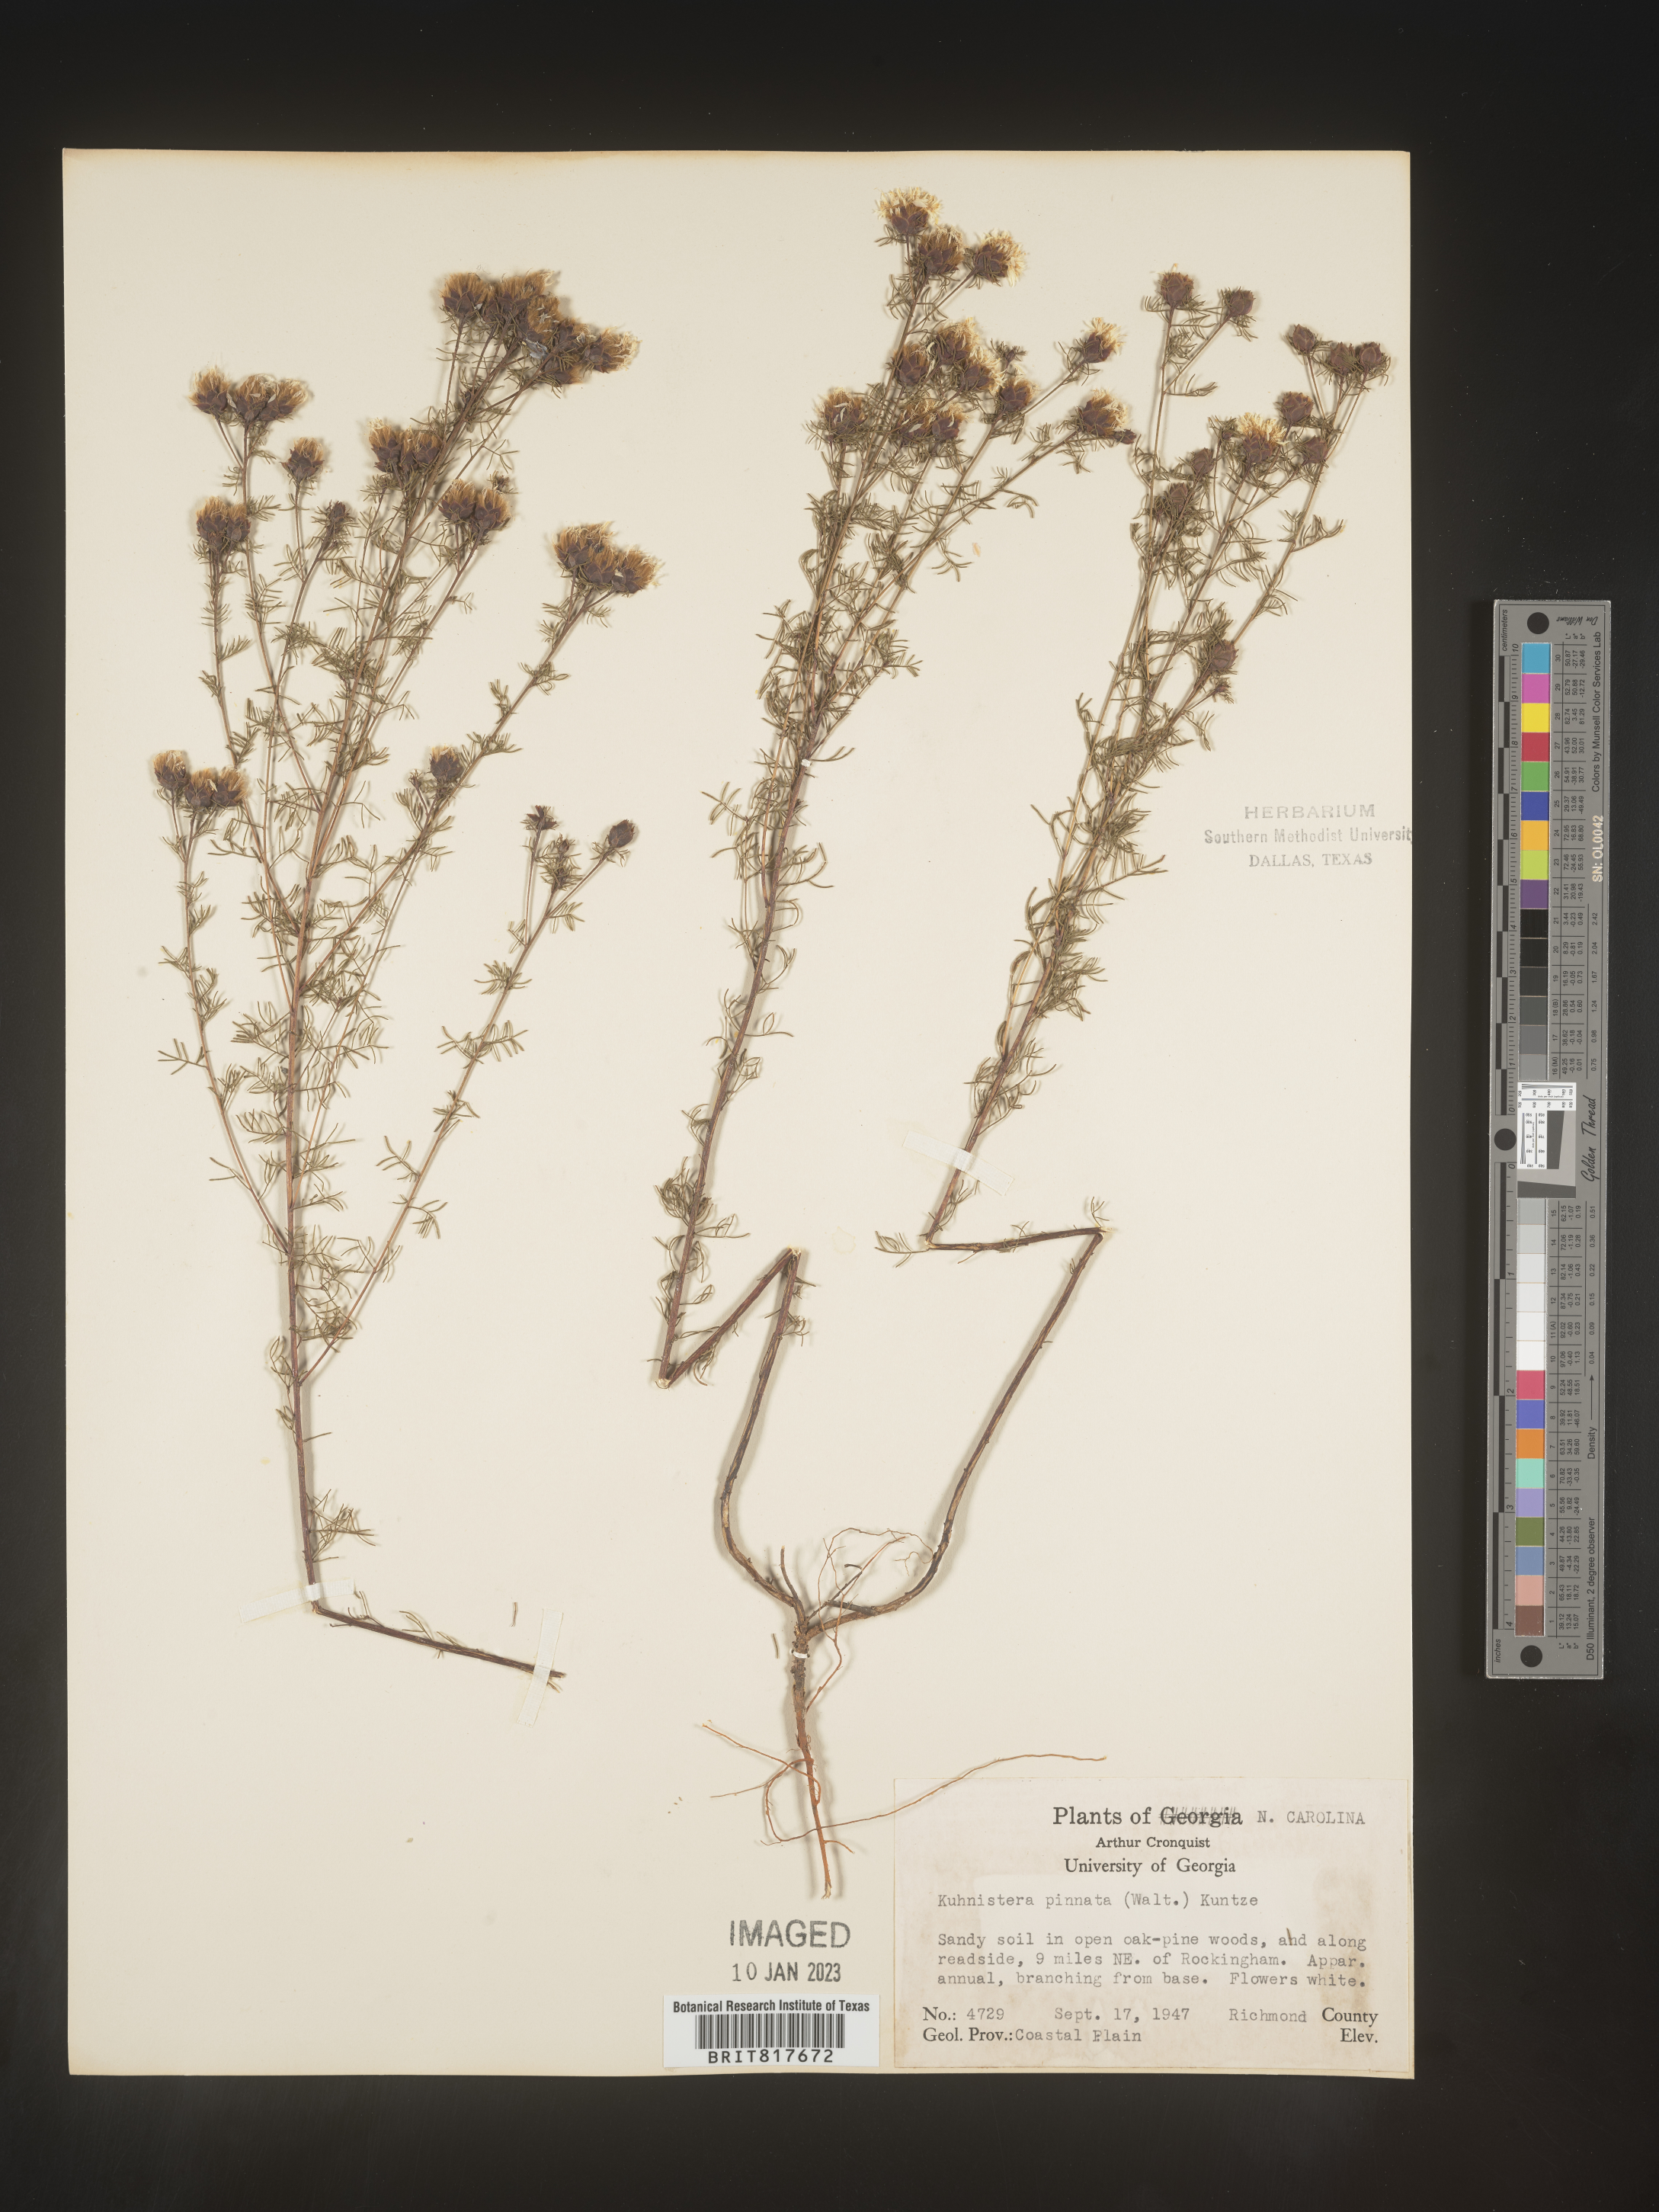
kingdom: Plantae
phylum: Tracheophyta
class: Magnoliopsida
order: Fabales
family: Fabaceae
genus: Dalea
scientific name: Dalea pinnata
